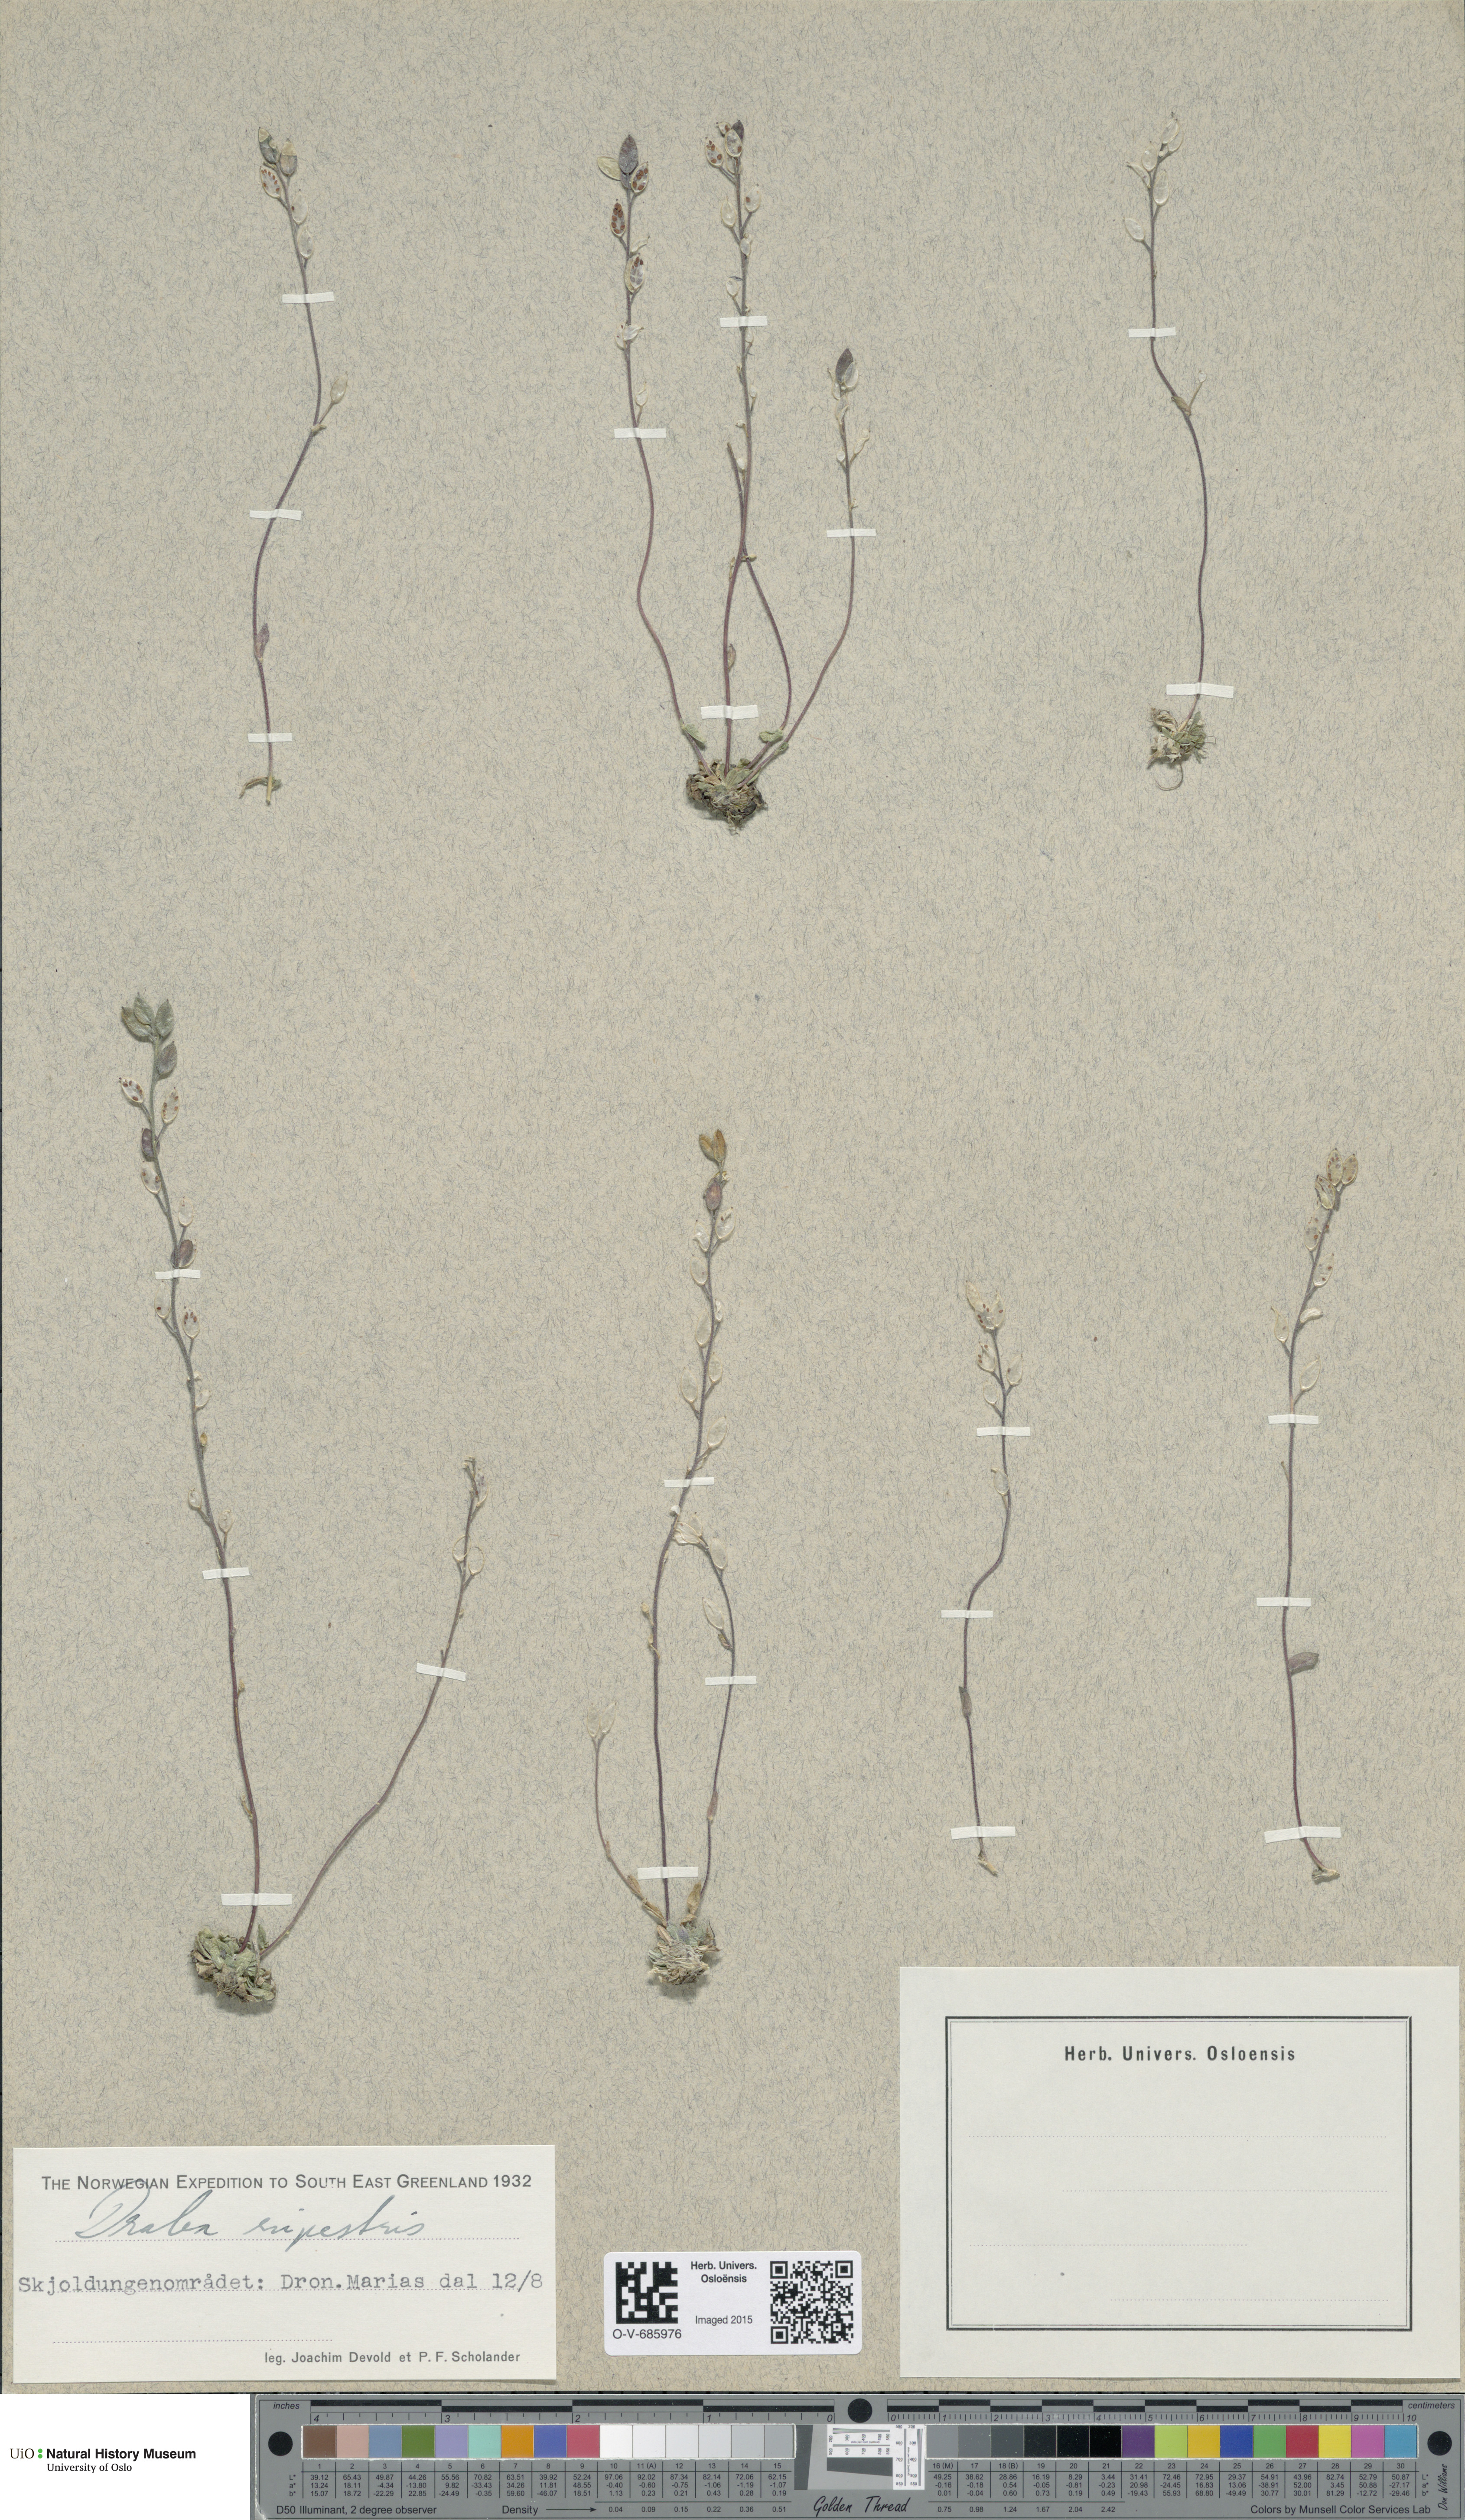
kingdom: Plantae
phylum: Tracheophyta
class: Magnoliopsida
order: Brassicales
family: Brassicaceae
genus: Draba
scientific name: Draba norvegica
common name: Rock whitlowgrass
